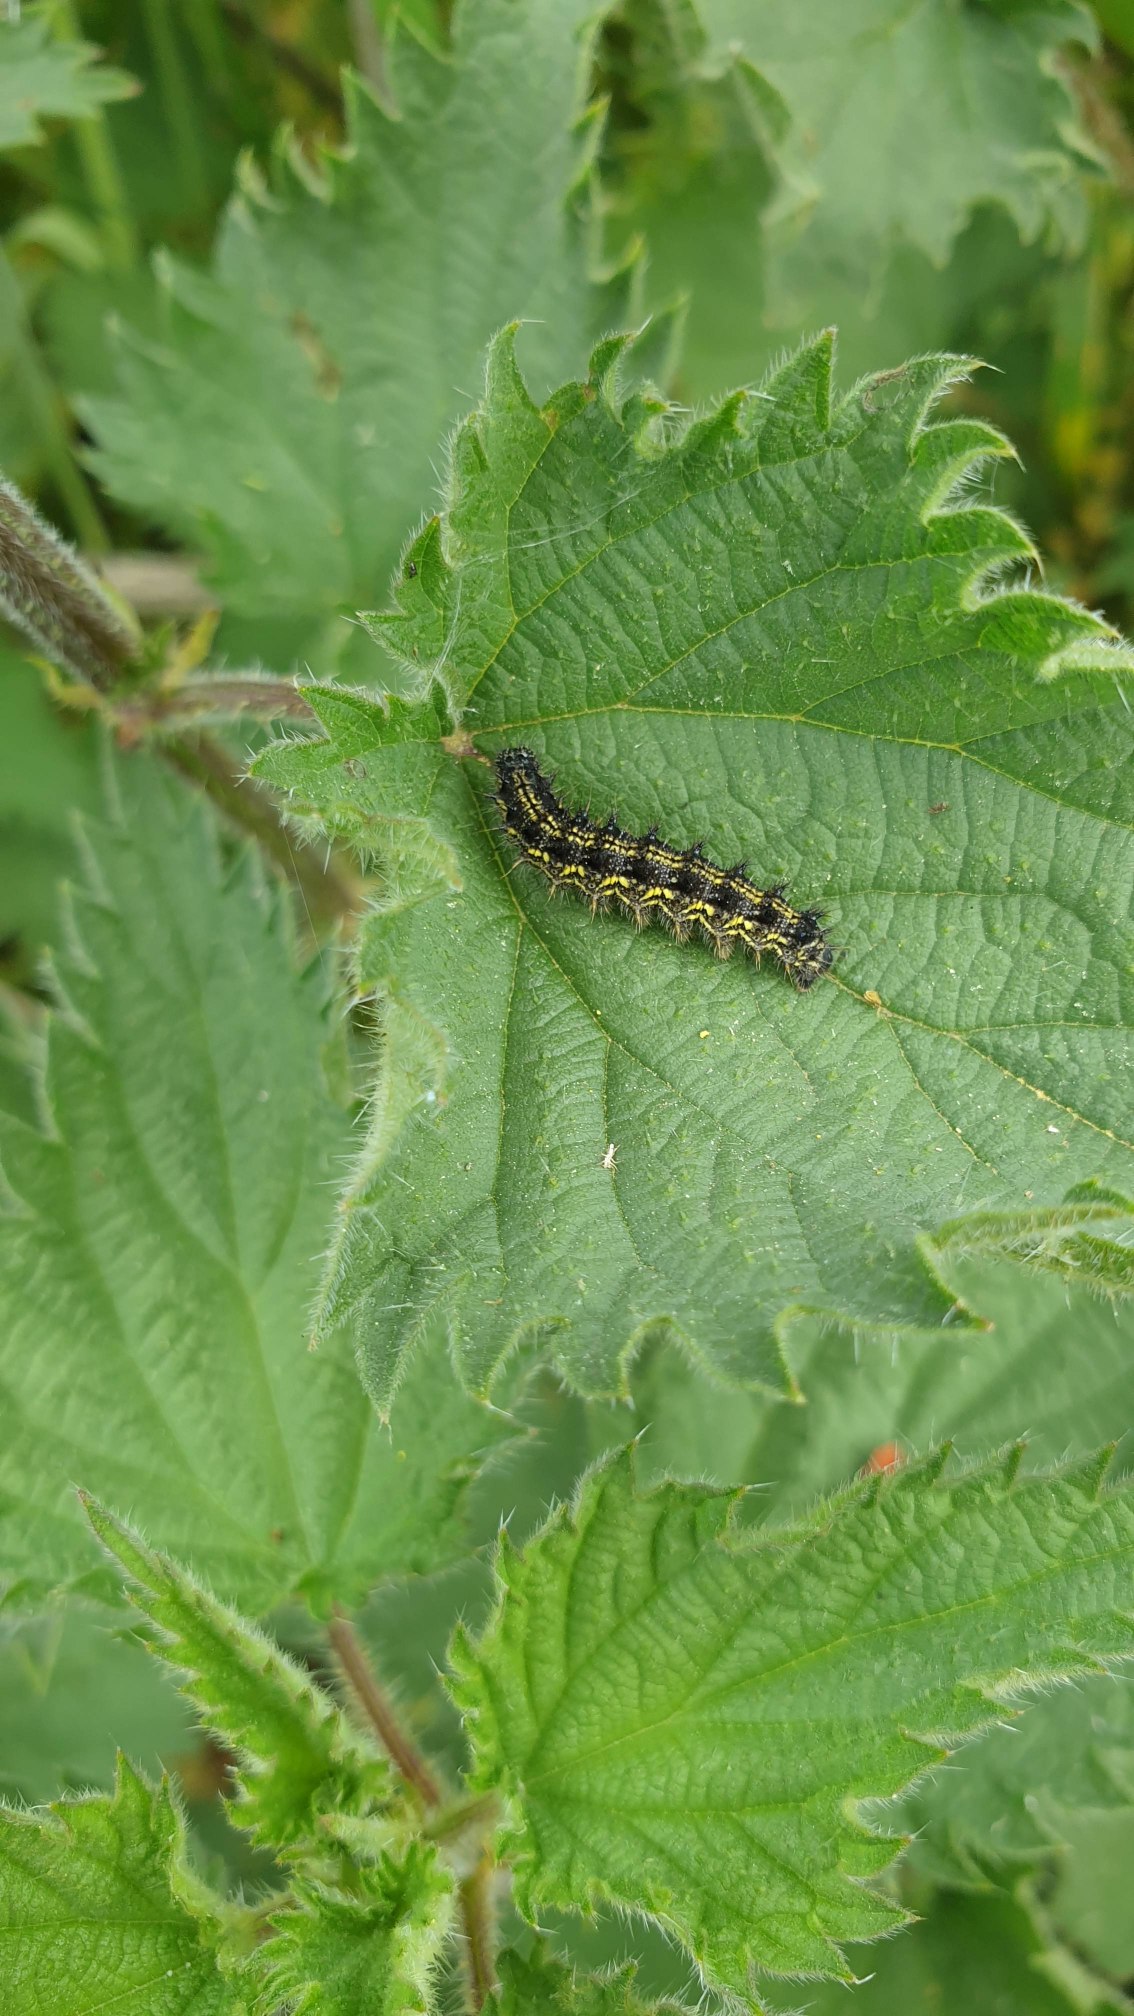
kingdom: Animalia
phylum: Arthropoda
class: Insecta
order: Lepidoptera
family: Nymphalidae
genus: Aglais
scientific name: Aglais urticae
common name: Nældens takvinge
